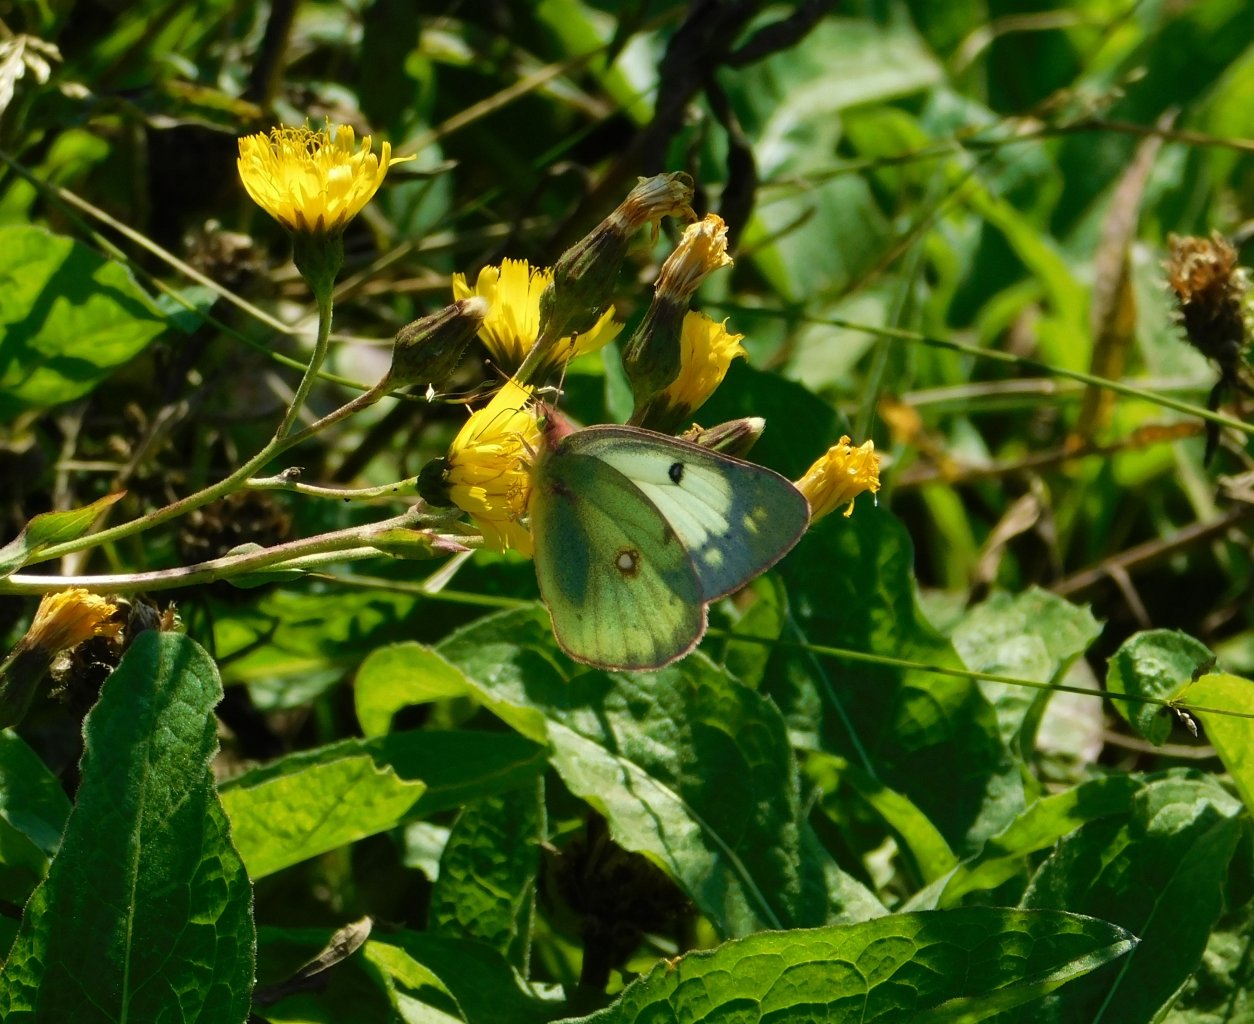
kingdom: Animalia
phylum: Arthropoda
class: Insecta
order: Lepidoptera
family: Pieridae
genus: Colias
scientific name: Colias philodice
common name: Clouded Sulphur
